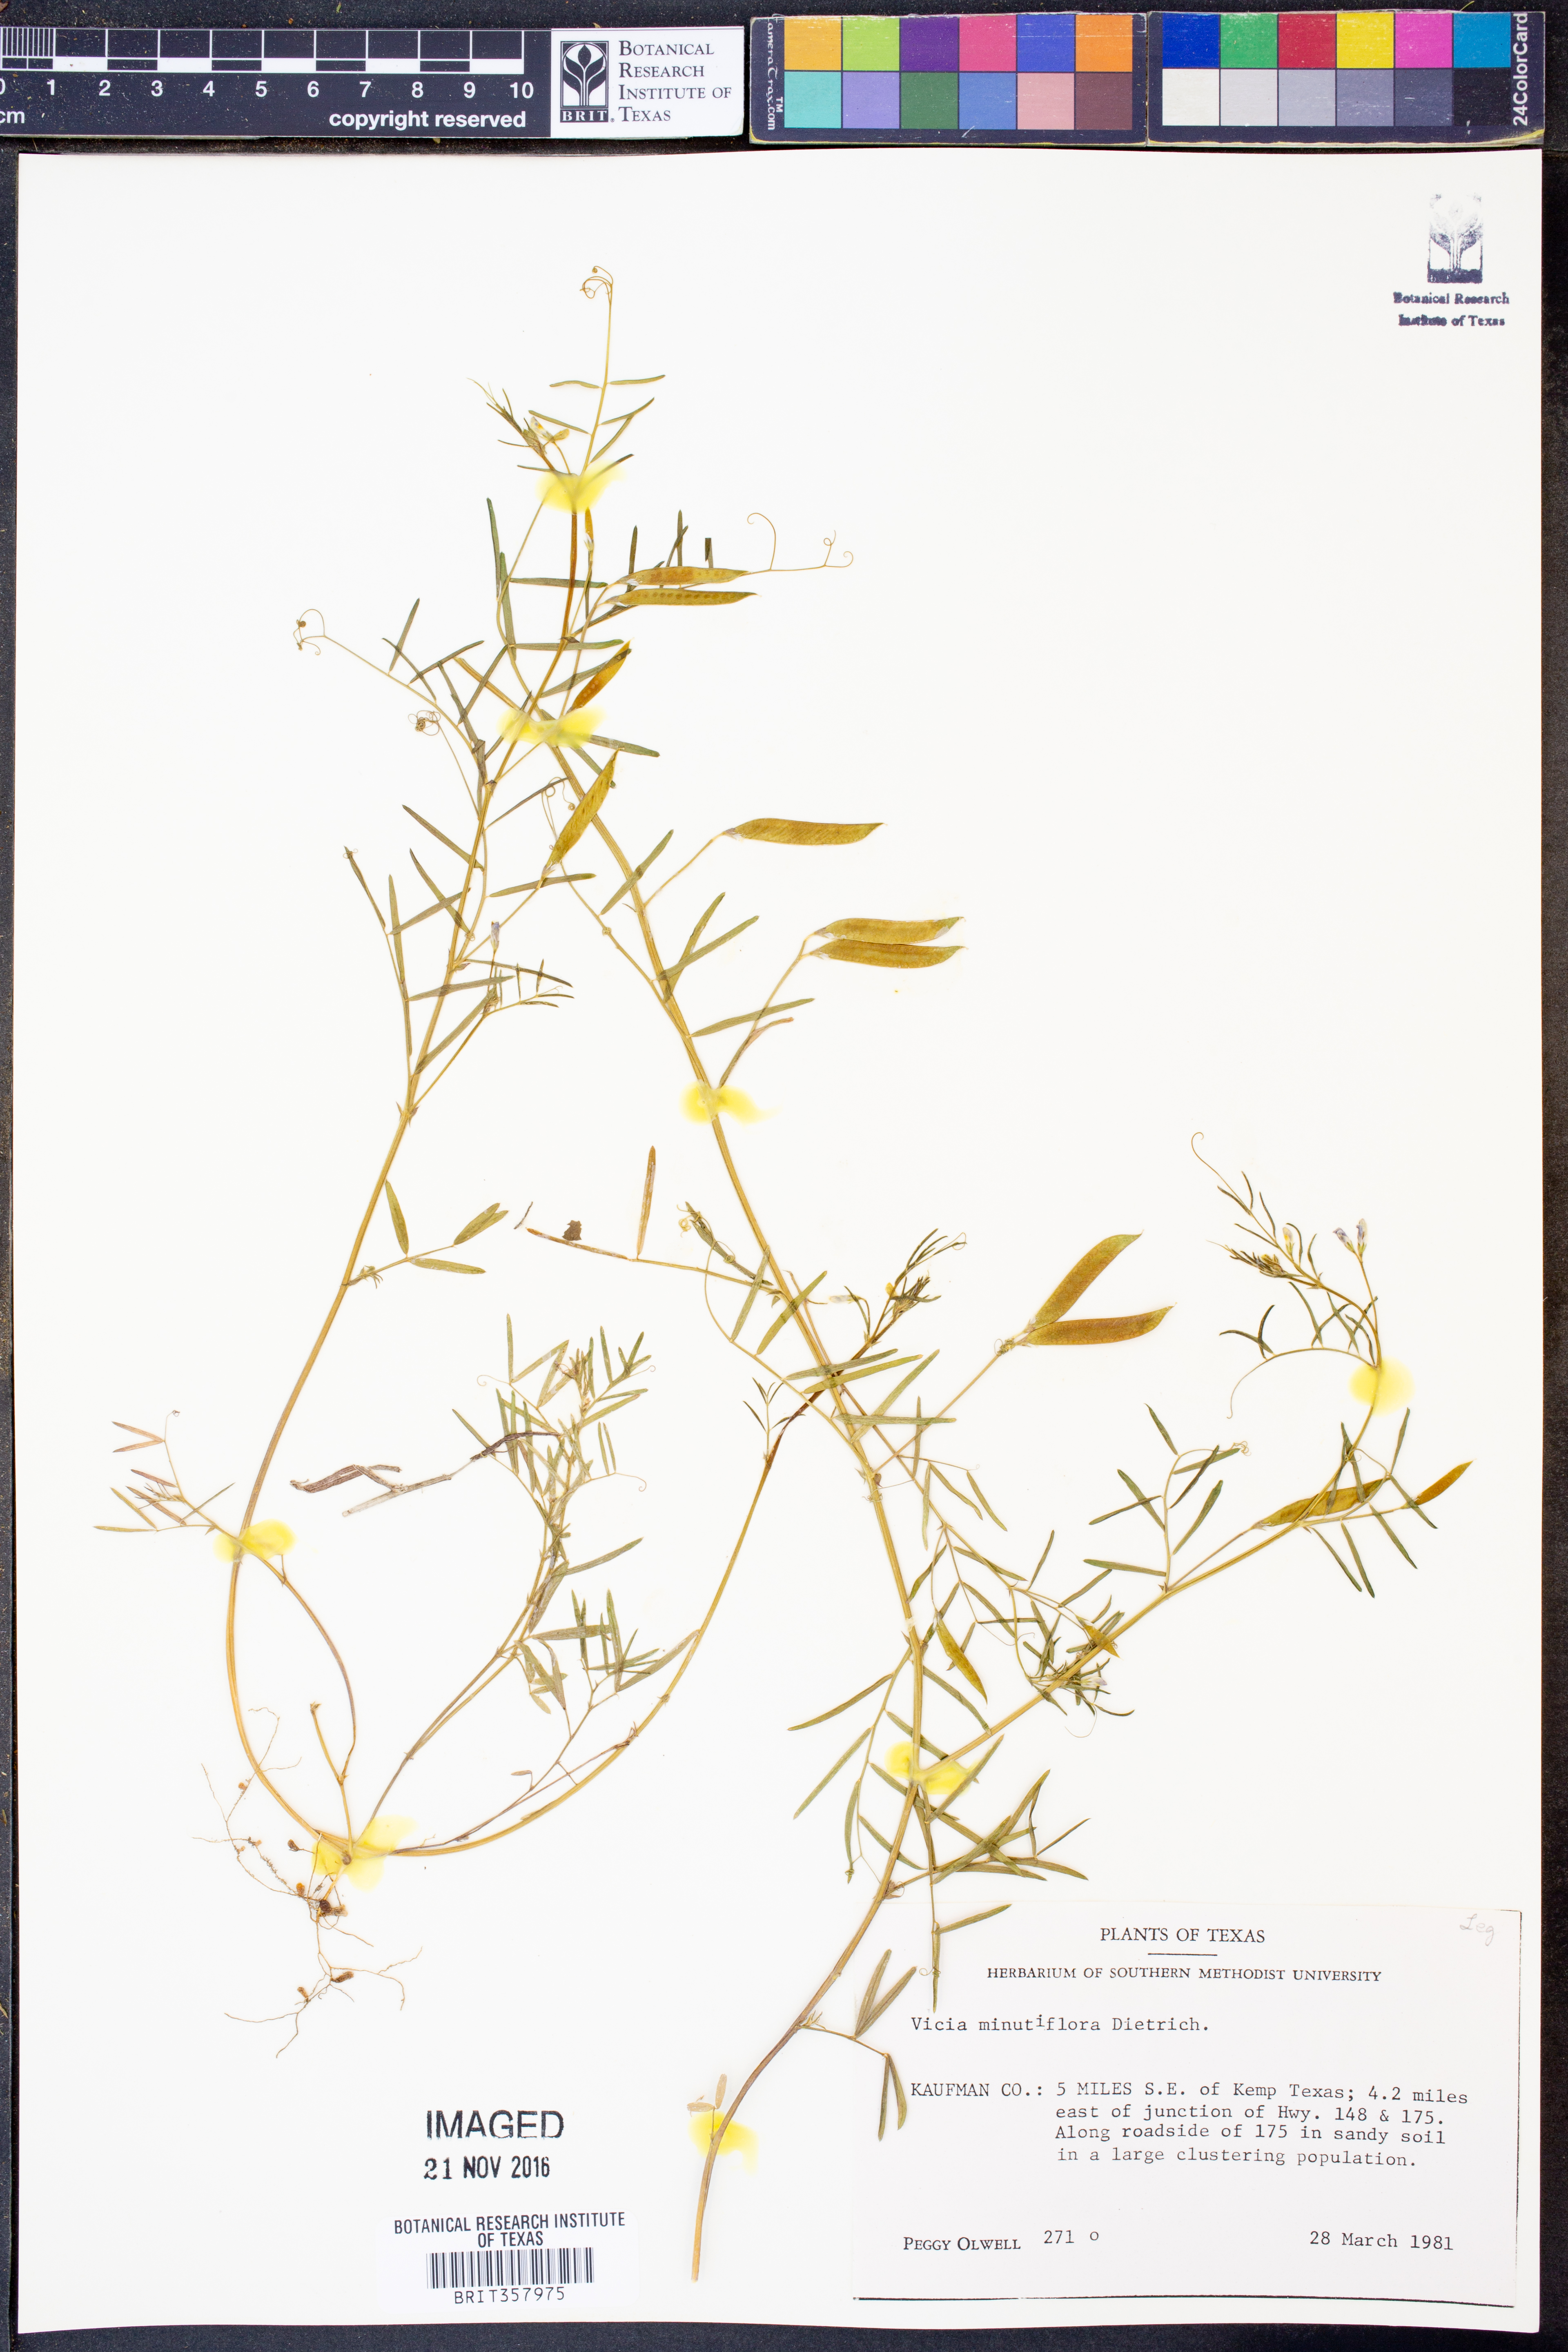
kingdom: Plantae
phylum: Tracheophyta
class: Magnoliopsida
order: Fabales
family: Fabaceae
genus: Vicia
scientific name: Vicia minutiflora
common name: Pygmy-flower vetch
